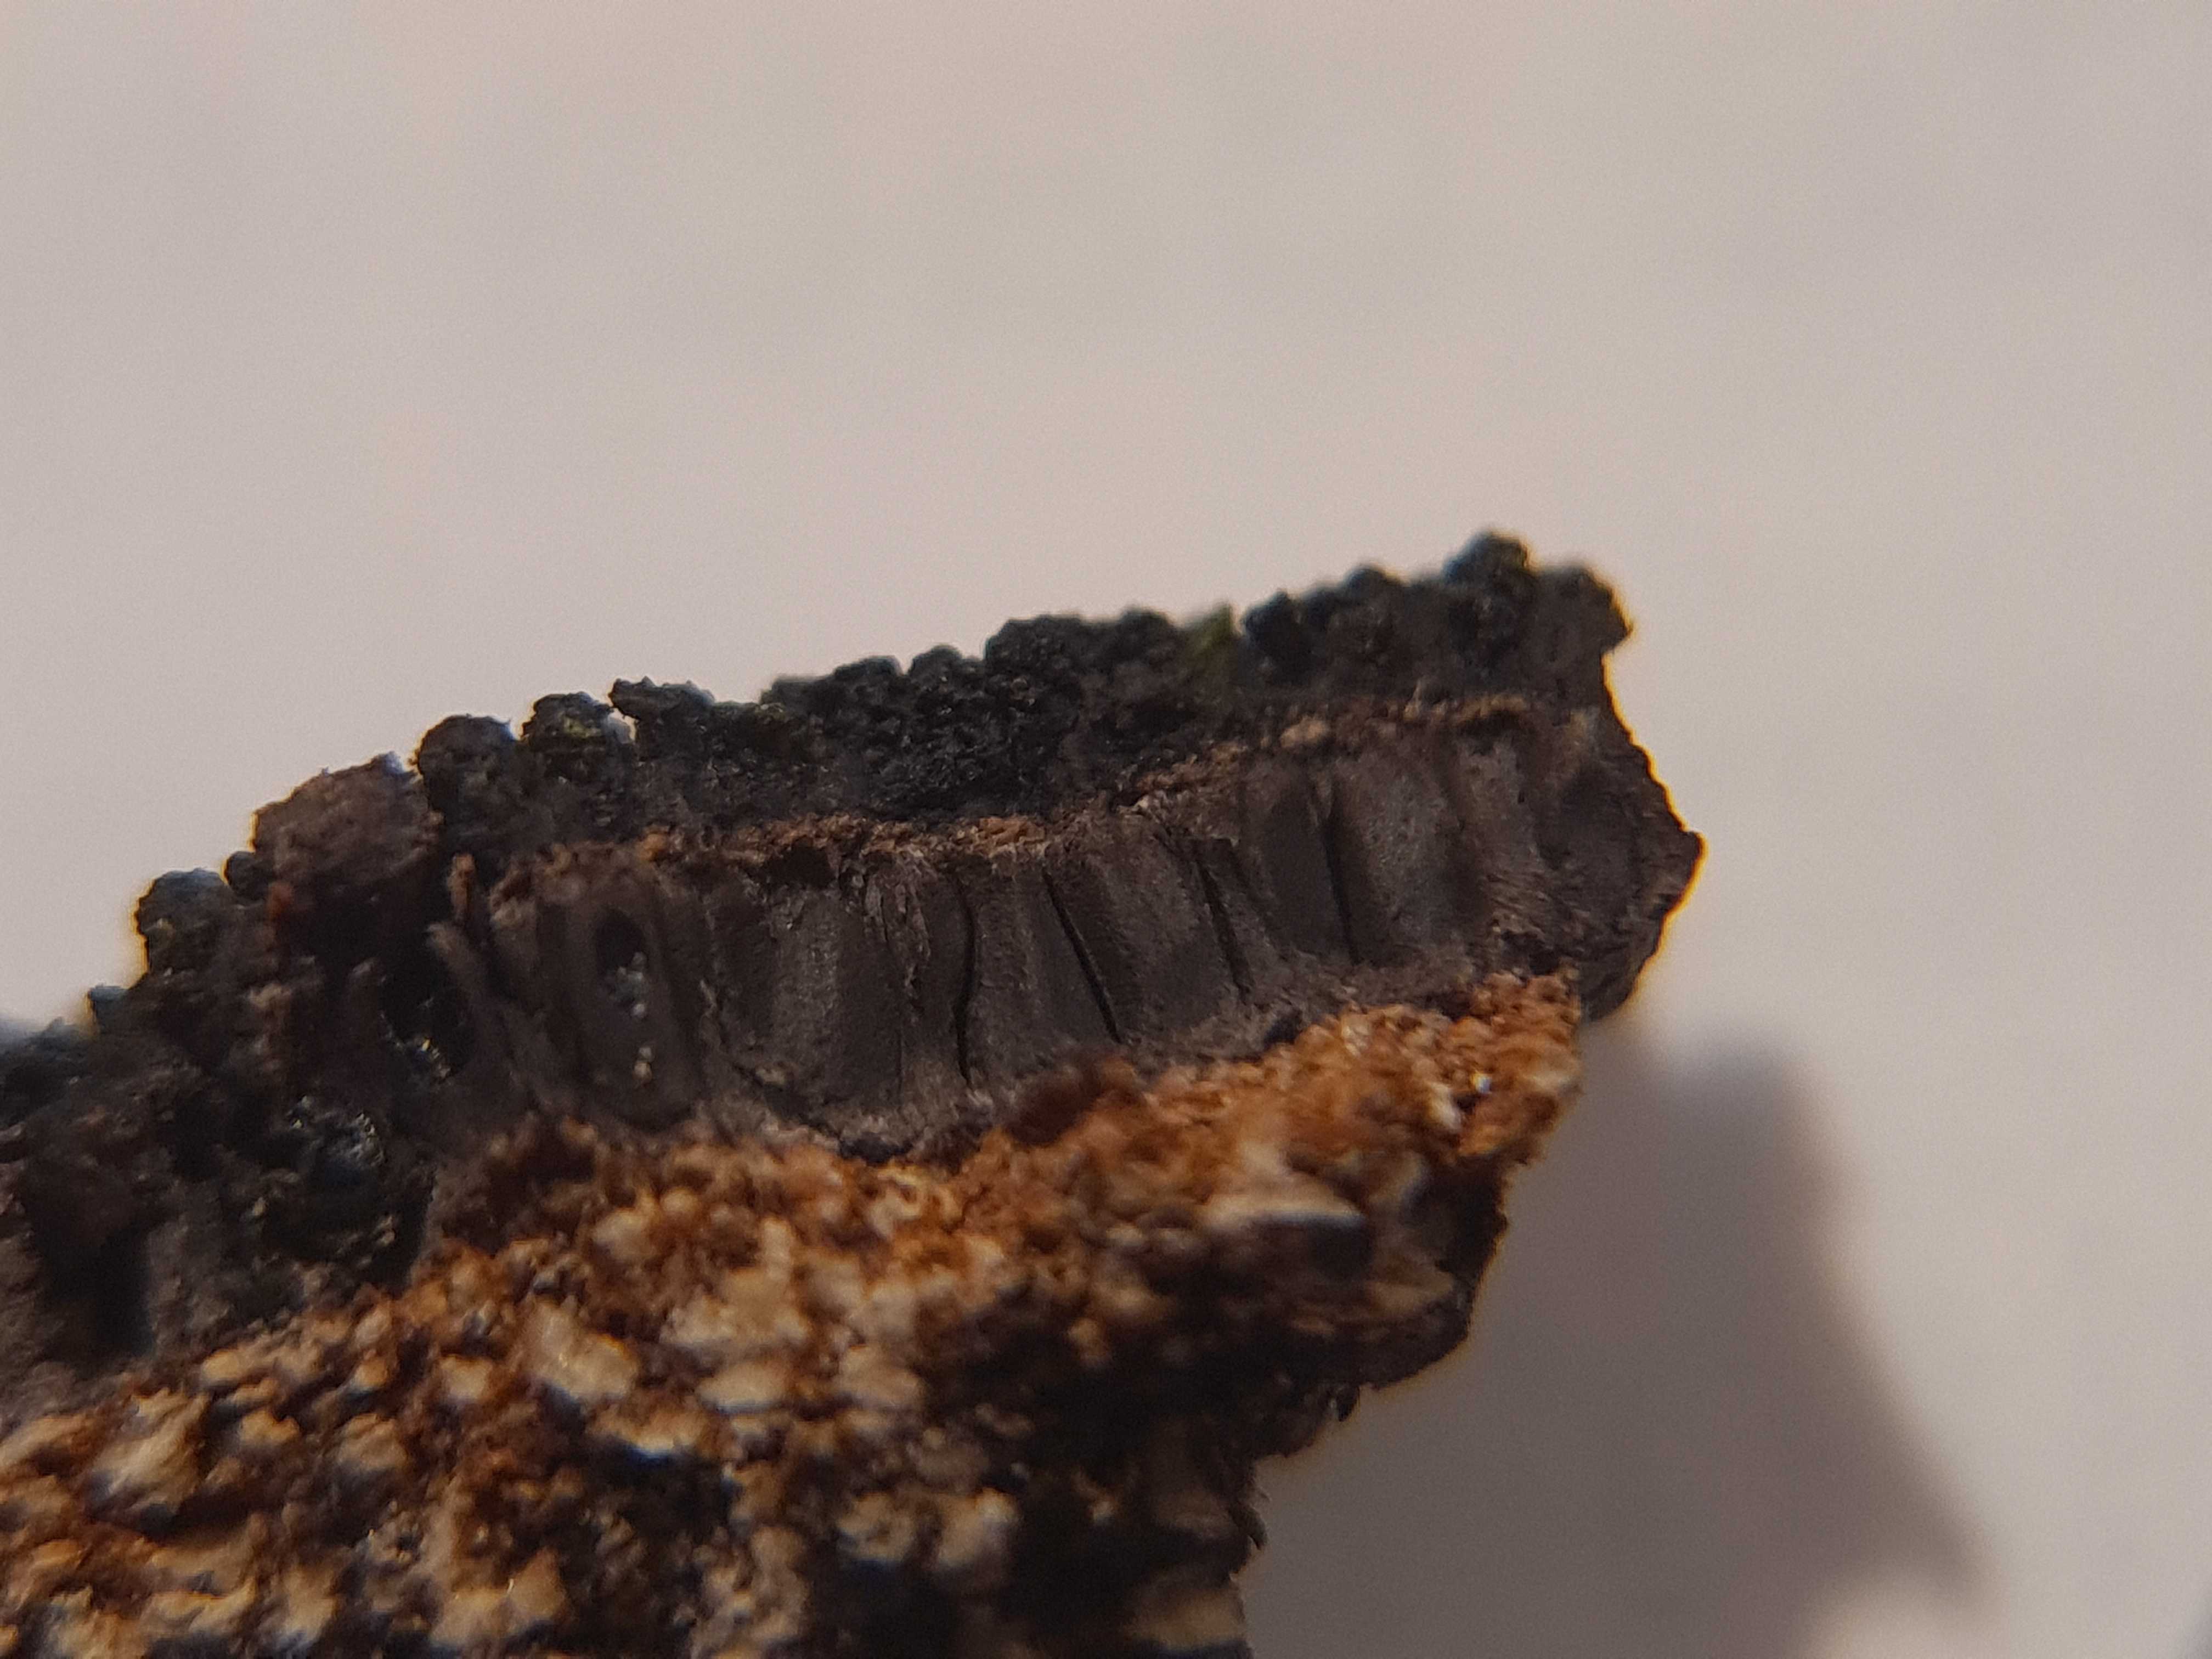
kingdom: Fungi
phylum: Ascomycota
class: Sordariomycetes
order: Xylariales
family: Diatrypaceae
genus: Eutypa
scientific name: Eutypa spinosa
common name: grov kulskorpe
